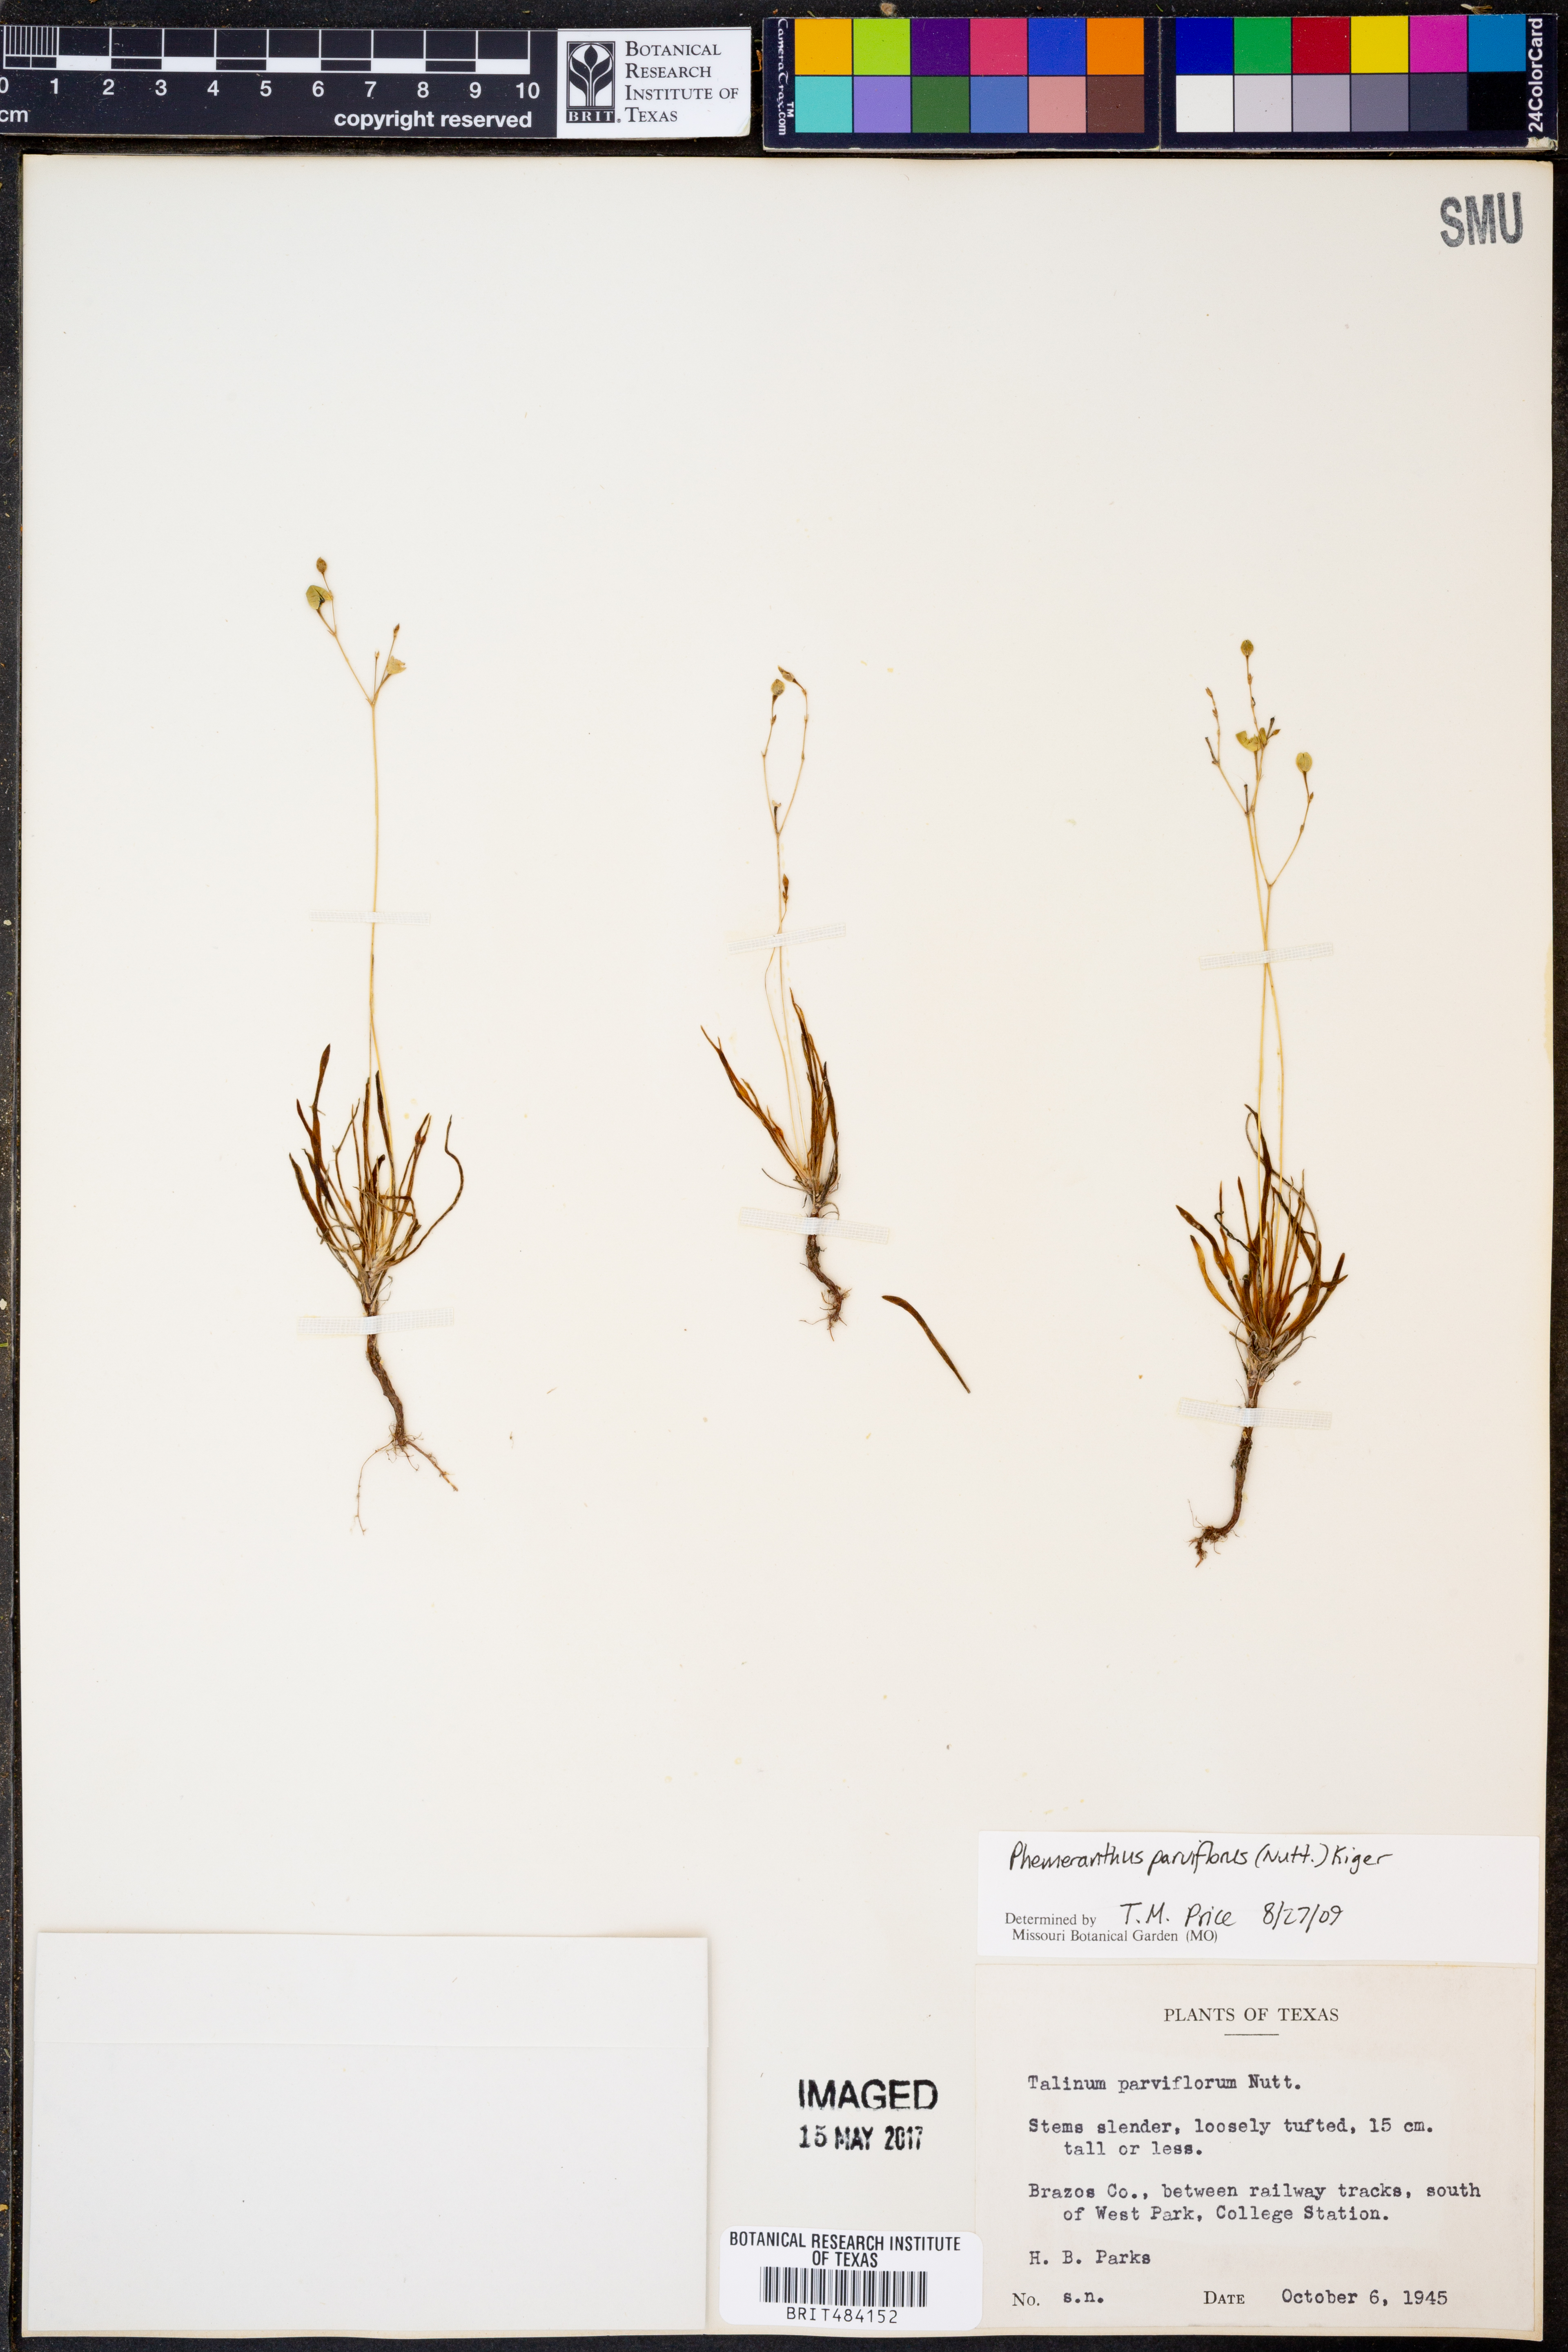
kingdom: Plantae
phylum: Tracheophyta
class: Magnoliopsida
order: Caryophyllales
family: Montiaceae
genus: Phemeranthus
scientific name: Phemeranthus parviflorus
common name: Sunbright
